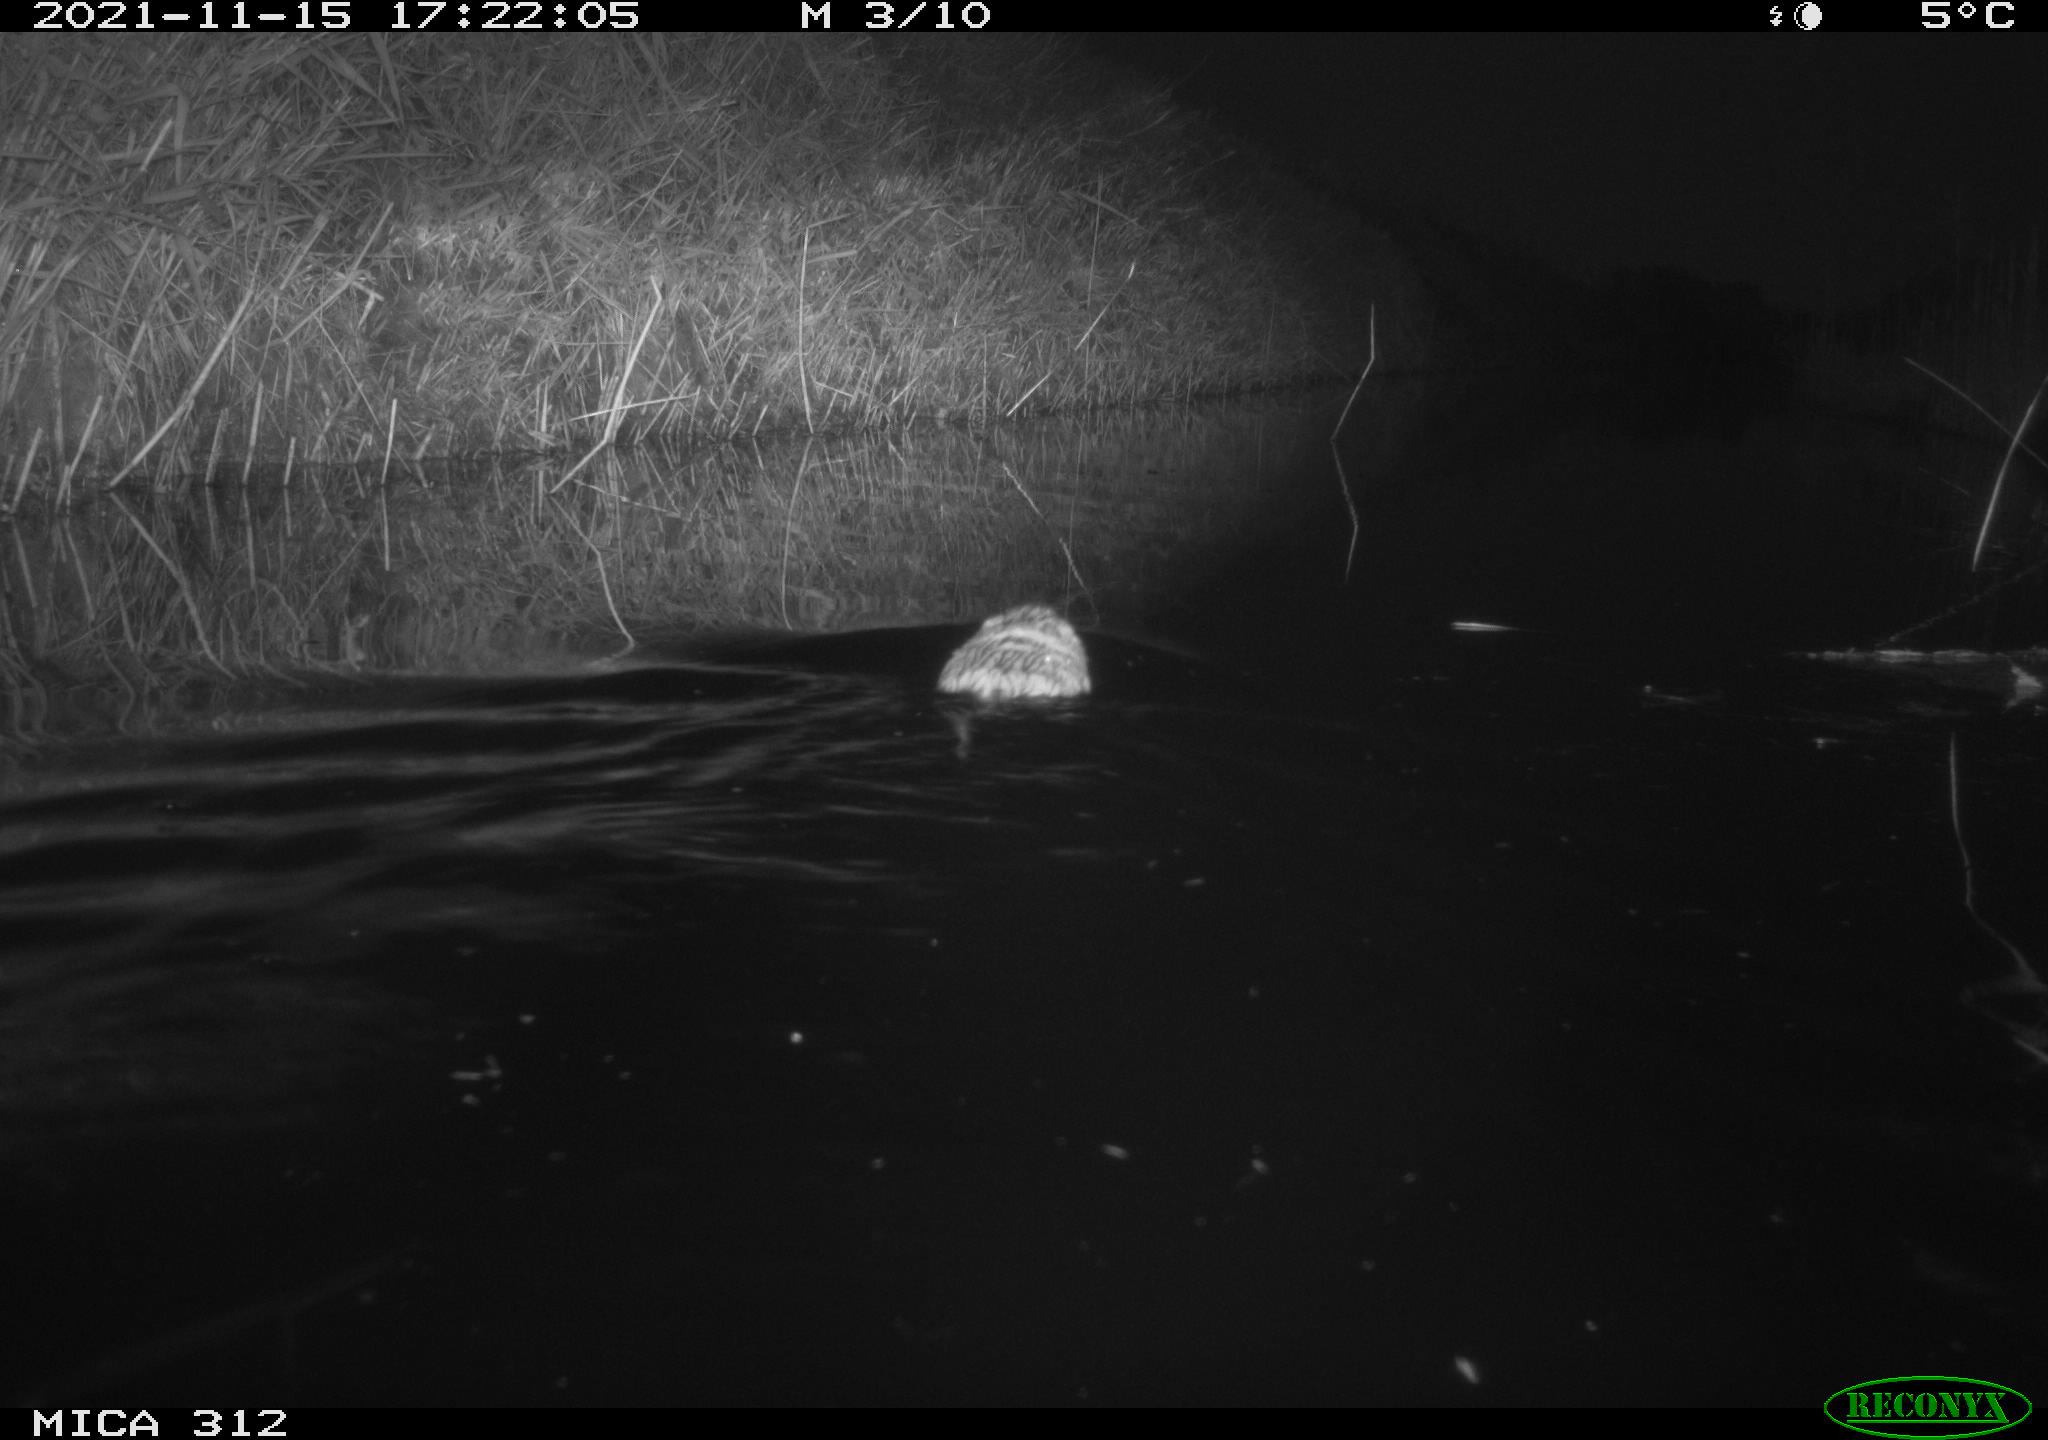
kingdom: Animalia
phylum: Chordata
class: Mammalia
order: Rodentia
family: Cricetidae
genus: Ondatra
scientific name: Ondatra zibethicus
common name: Muskrat
